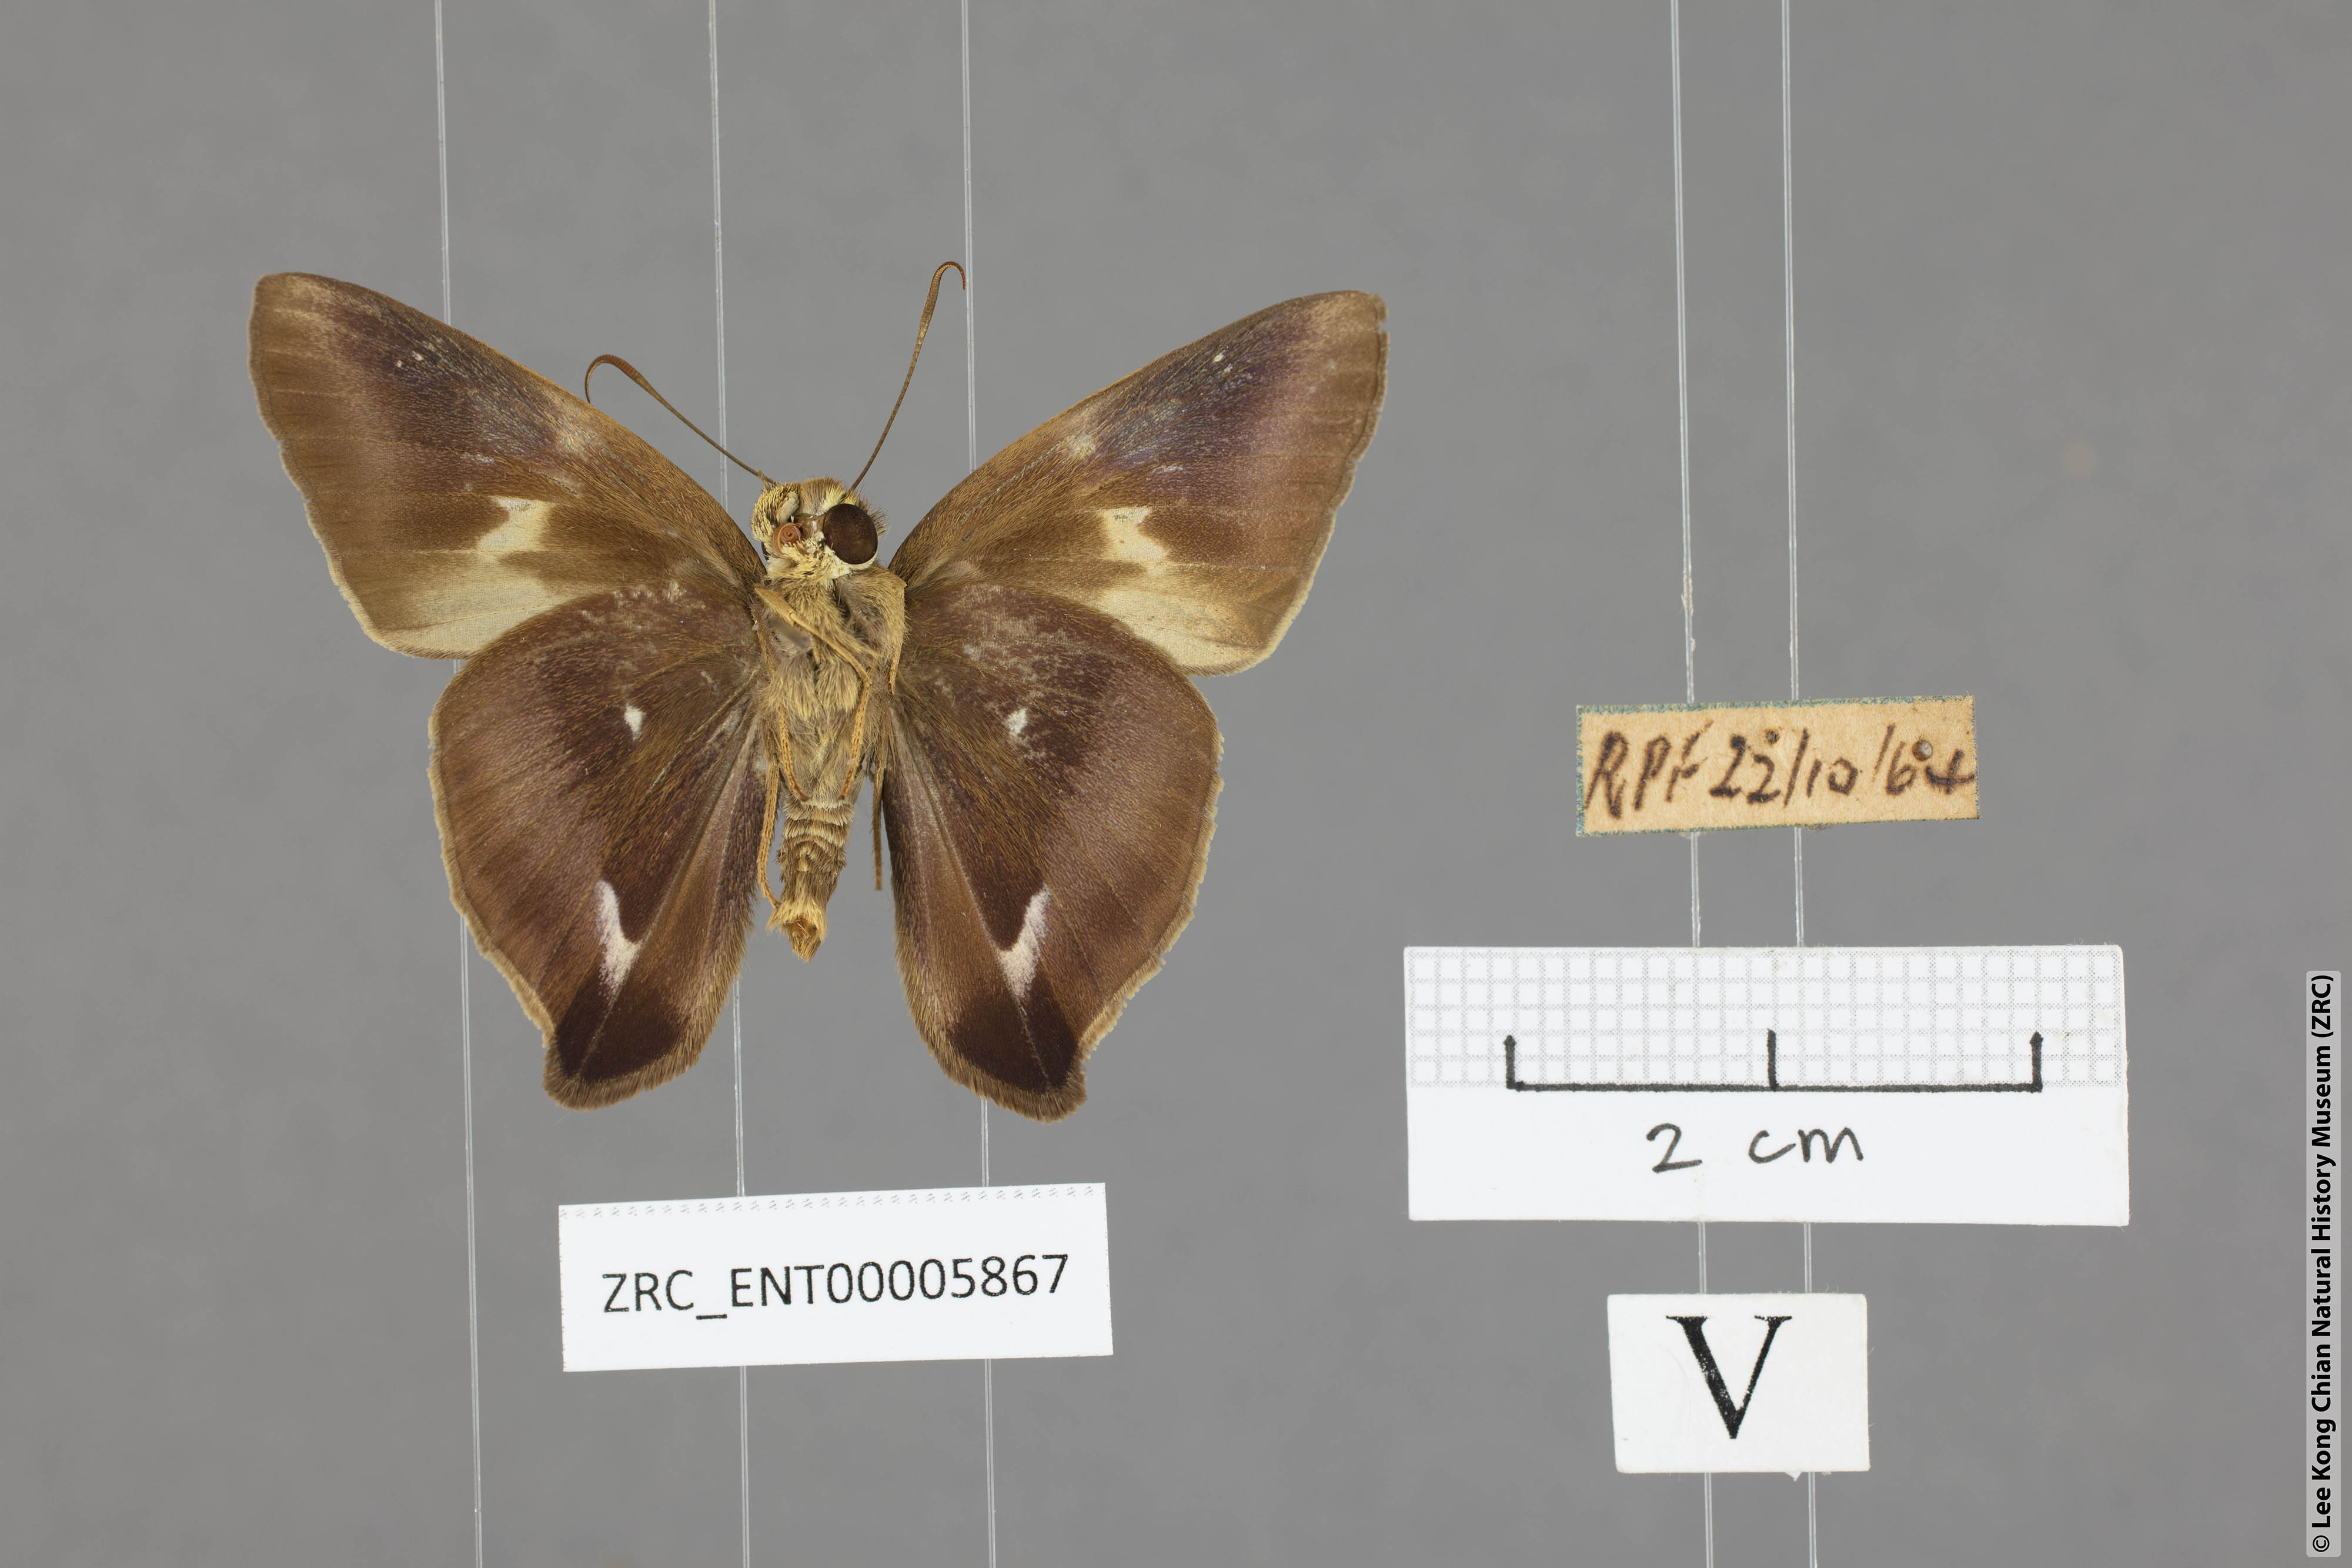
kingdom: Animalia
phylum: Arthropoda
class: Insecta
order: Lepidoptera
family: Hesperiidae
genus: Hasora
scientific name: Hasora badra
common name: Common awl
